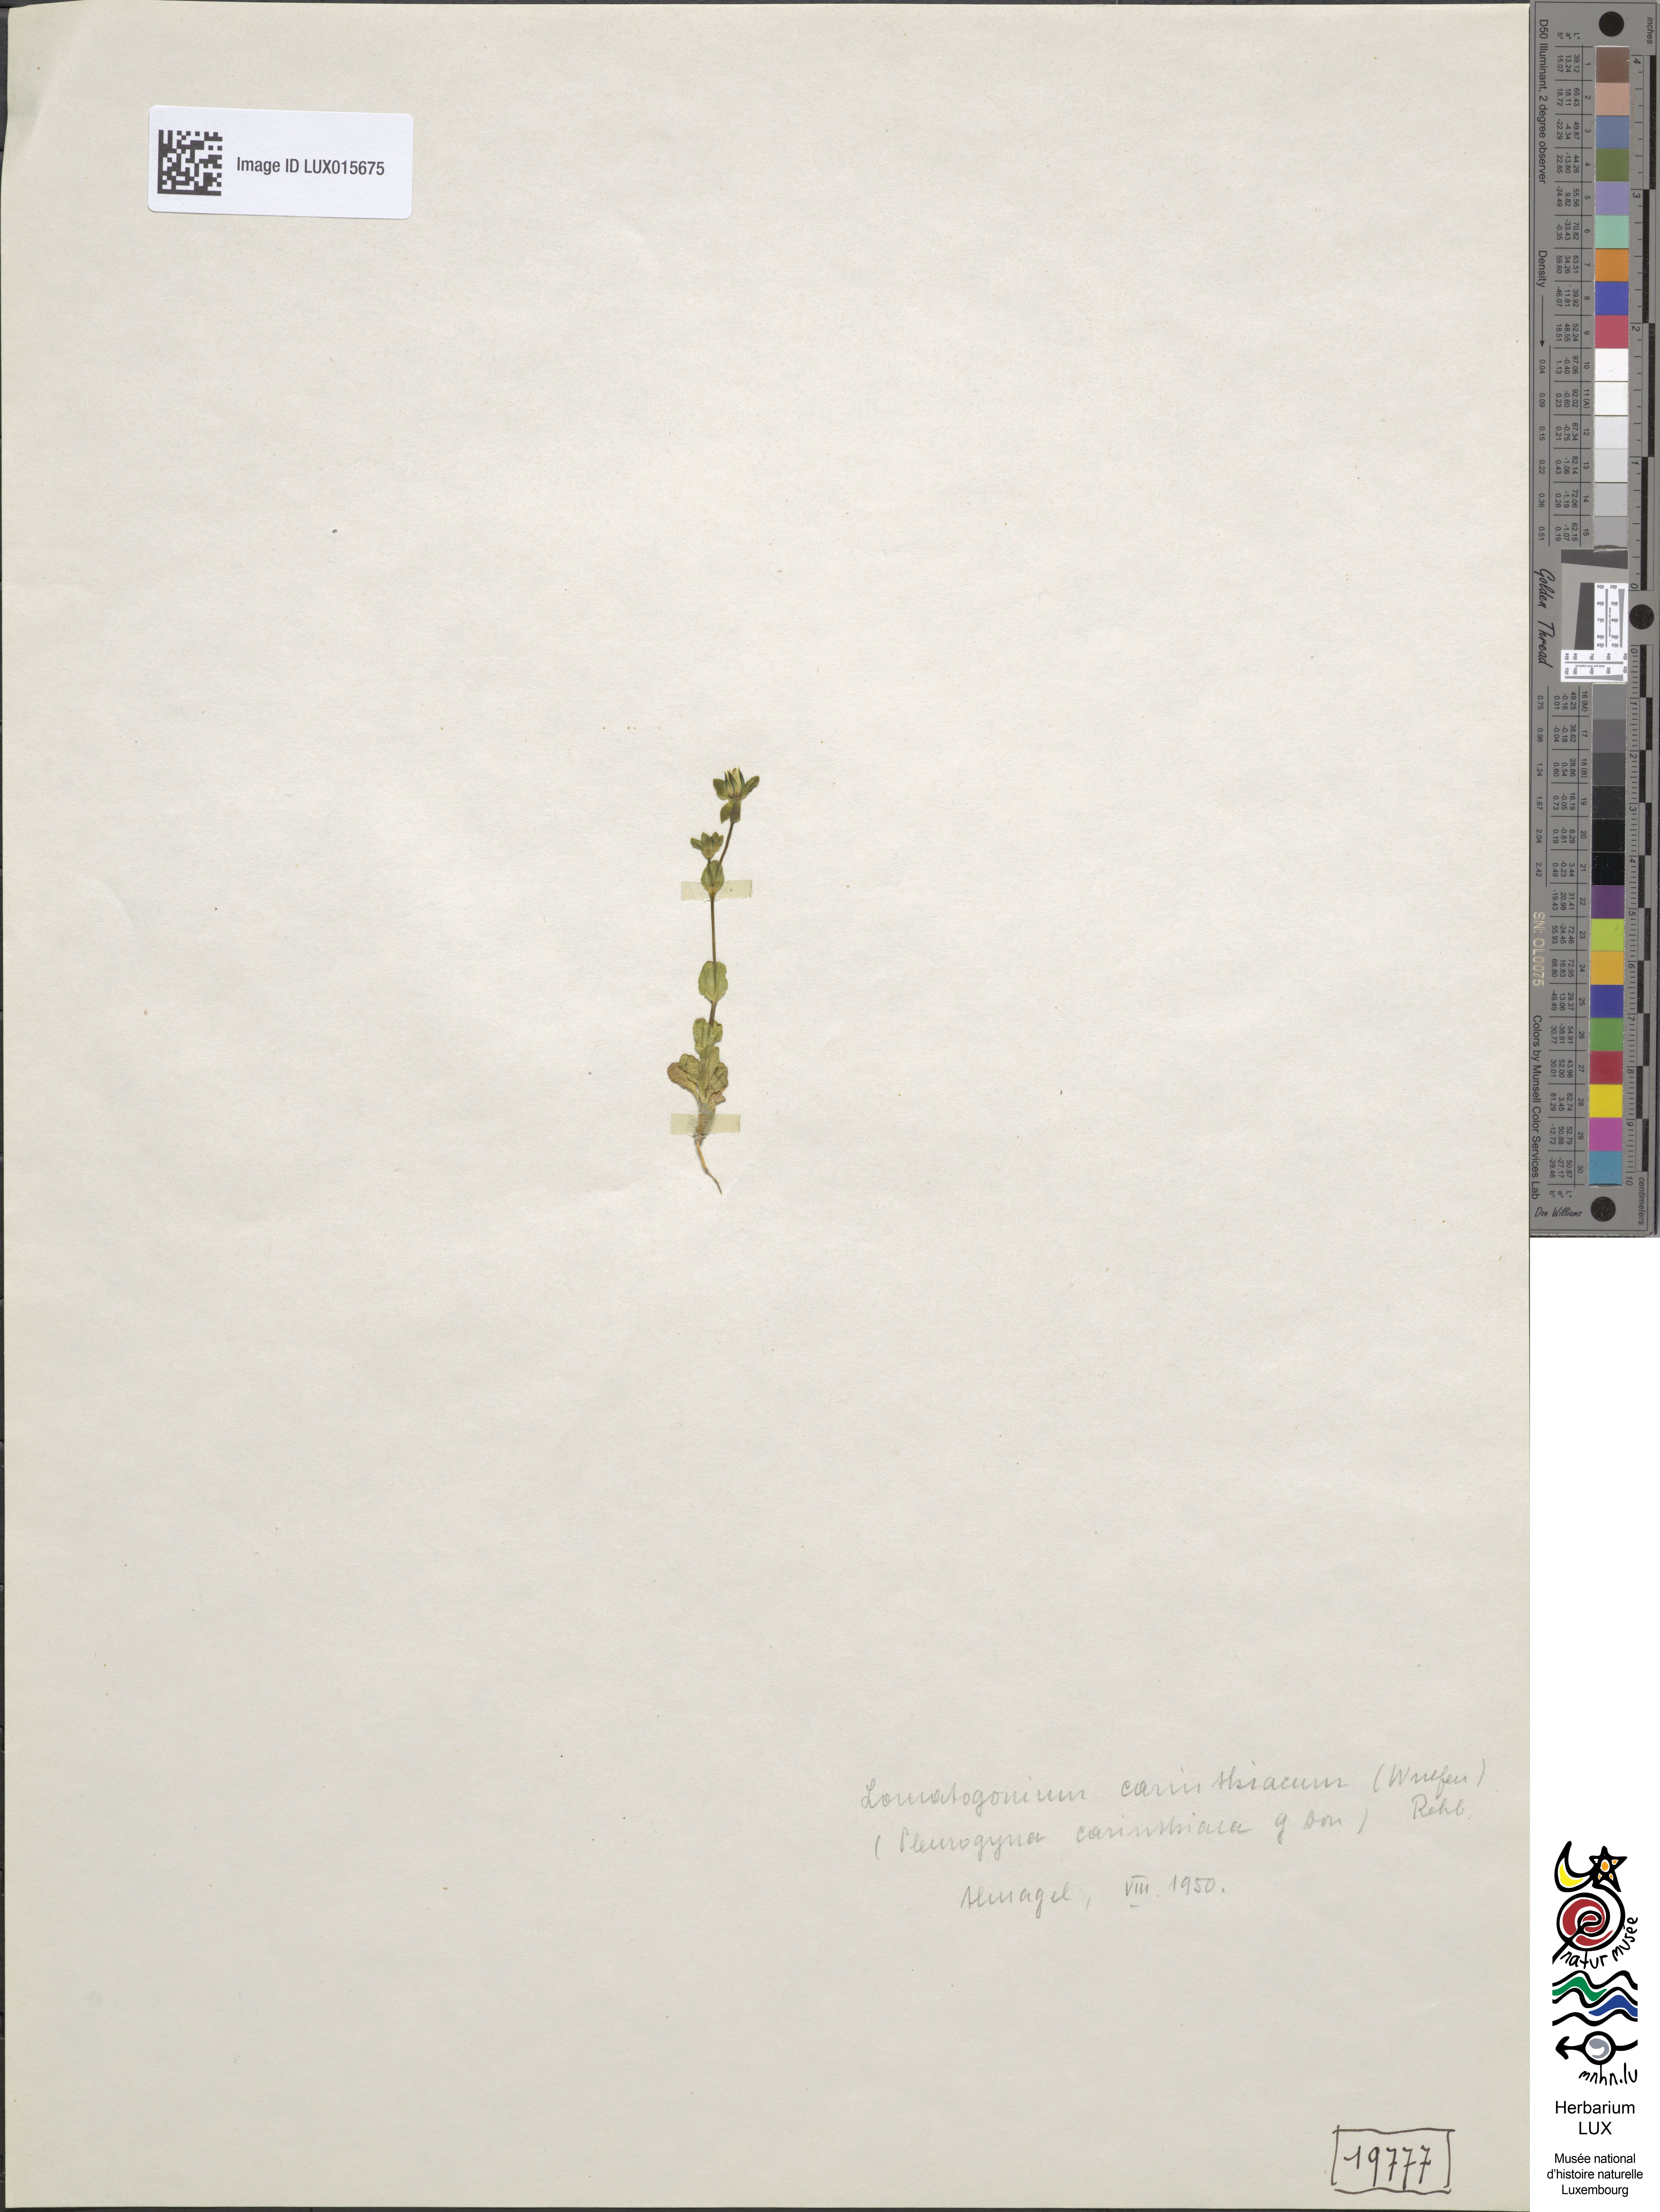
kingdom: Plantae
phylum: Tracheophyta
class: Magnoliopsida
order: Gentianales
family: Gentianaceae
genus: Lomatogonium
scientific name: Lomatogonium carinthiacum
